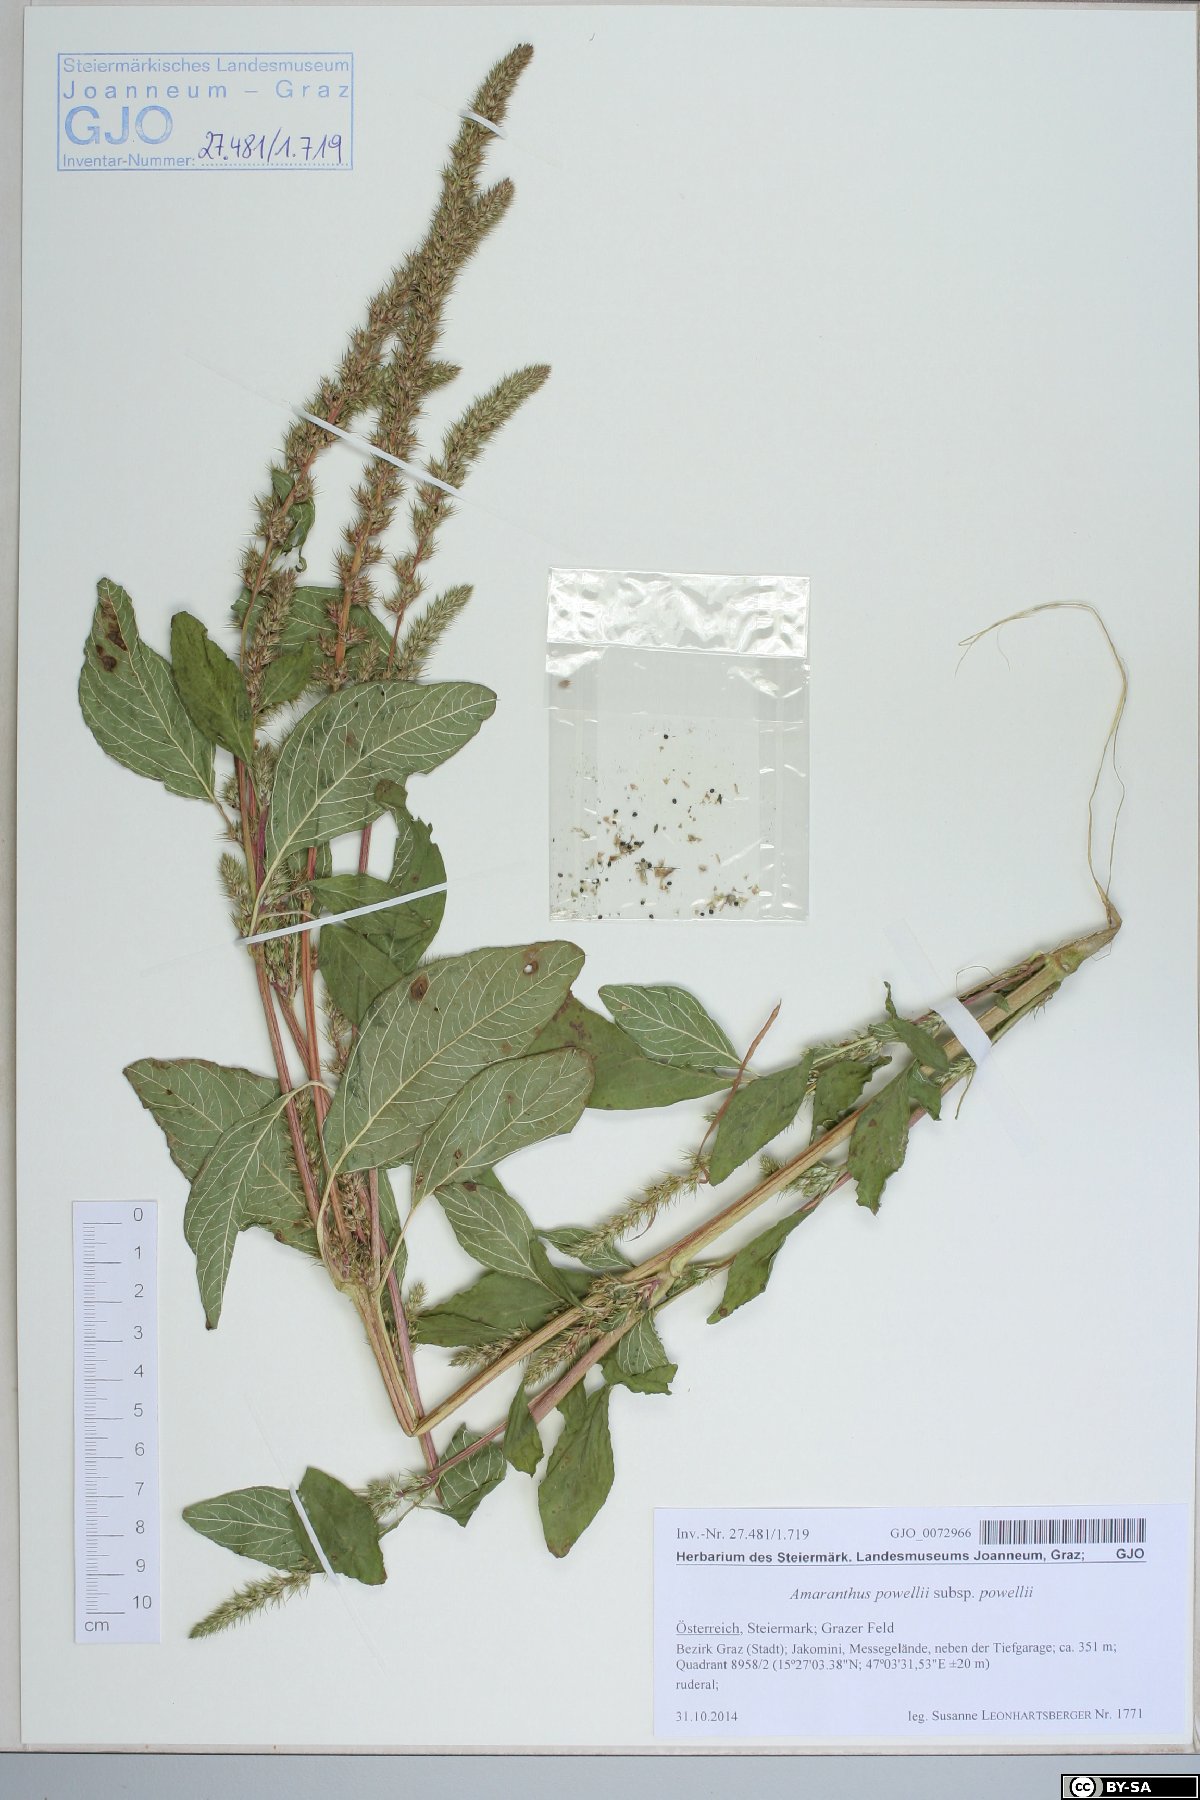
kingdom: Plantae
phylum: Tracheophyta
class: Magnoliopsida
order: Caryophyllales
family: Amaranthaceae
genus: Amaranthus
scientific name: Amaranthus powellii
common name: Powell's amaranth
